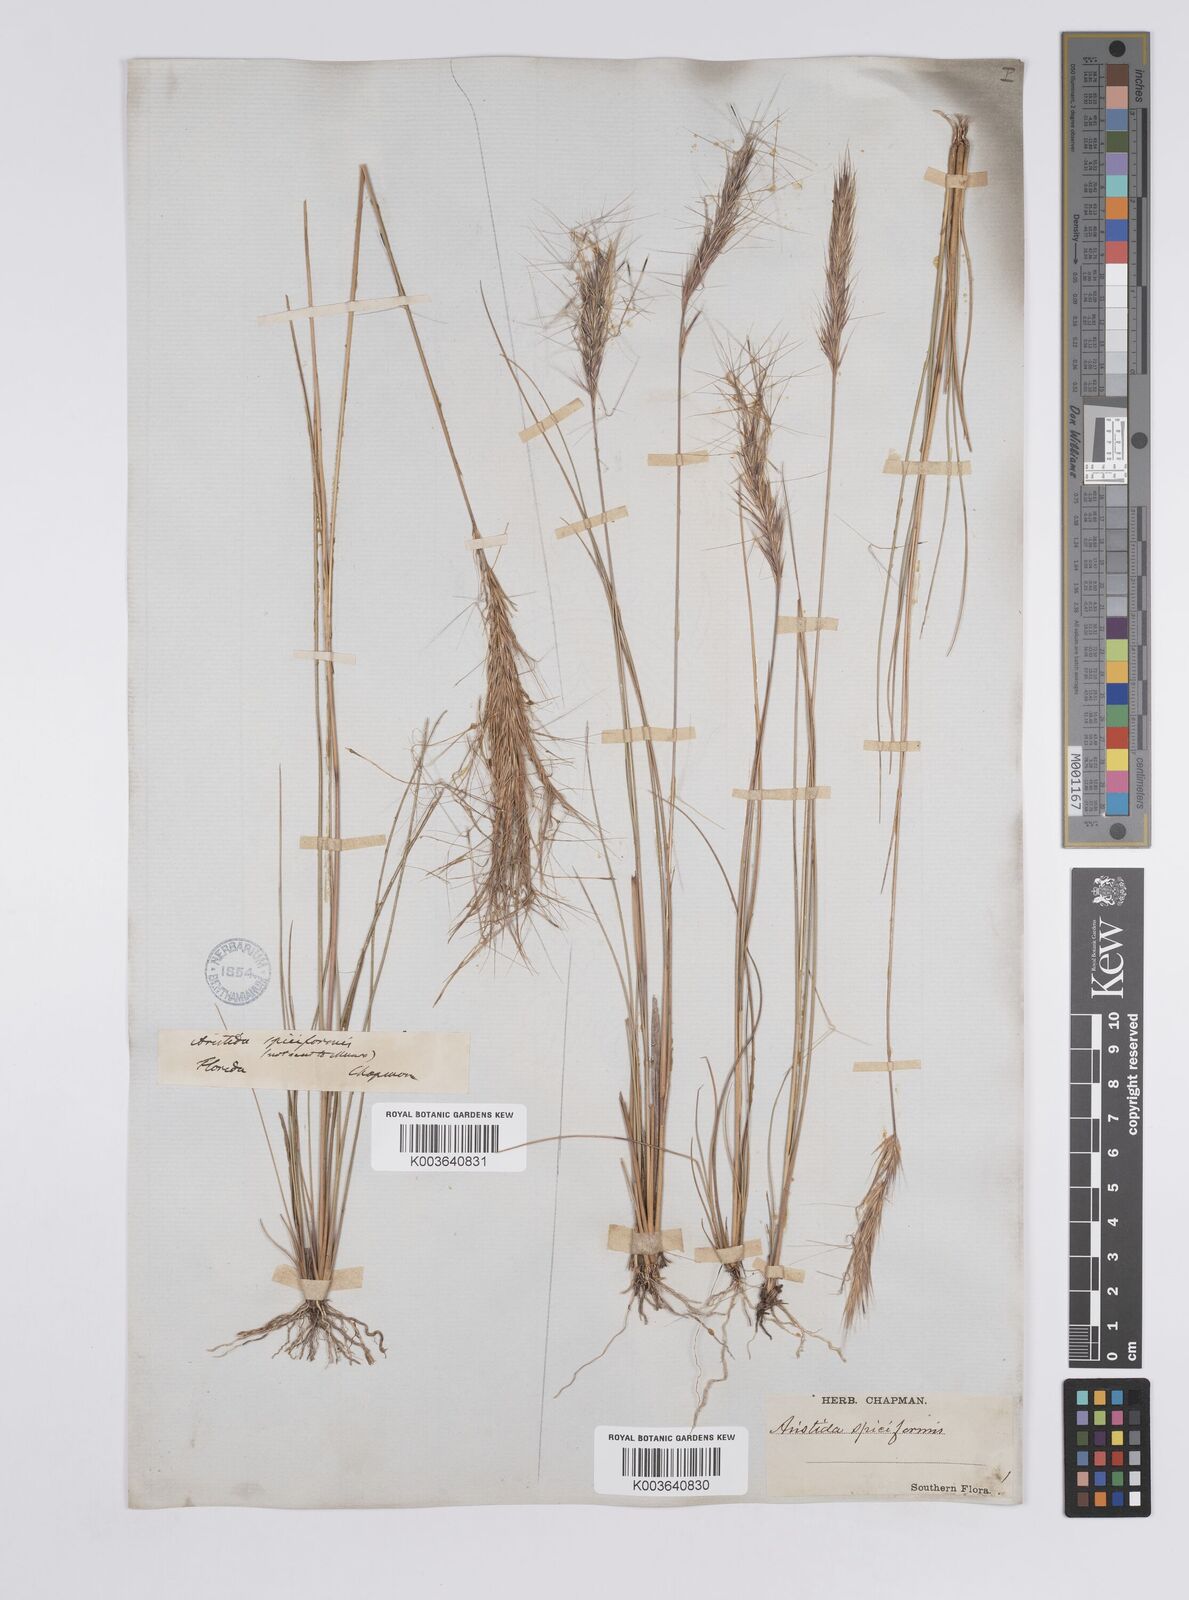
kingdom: Plantae
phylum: Tracheophyta
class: Liliopsida
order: Poales
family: Poaceae
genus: Aristida
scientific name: Aristida spiciformis
